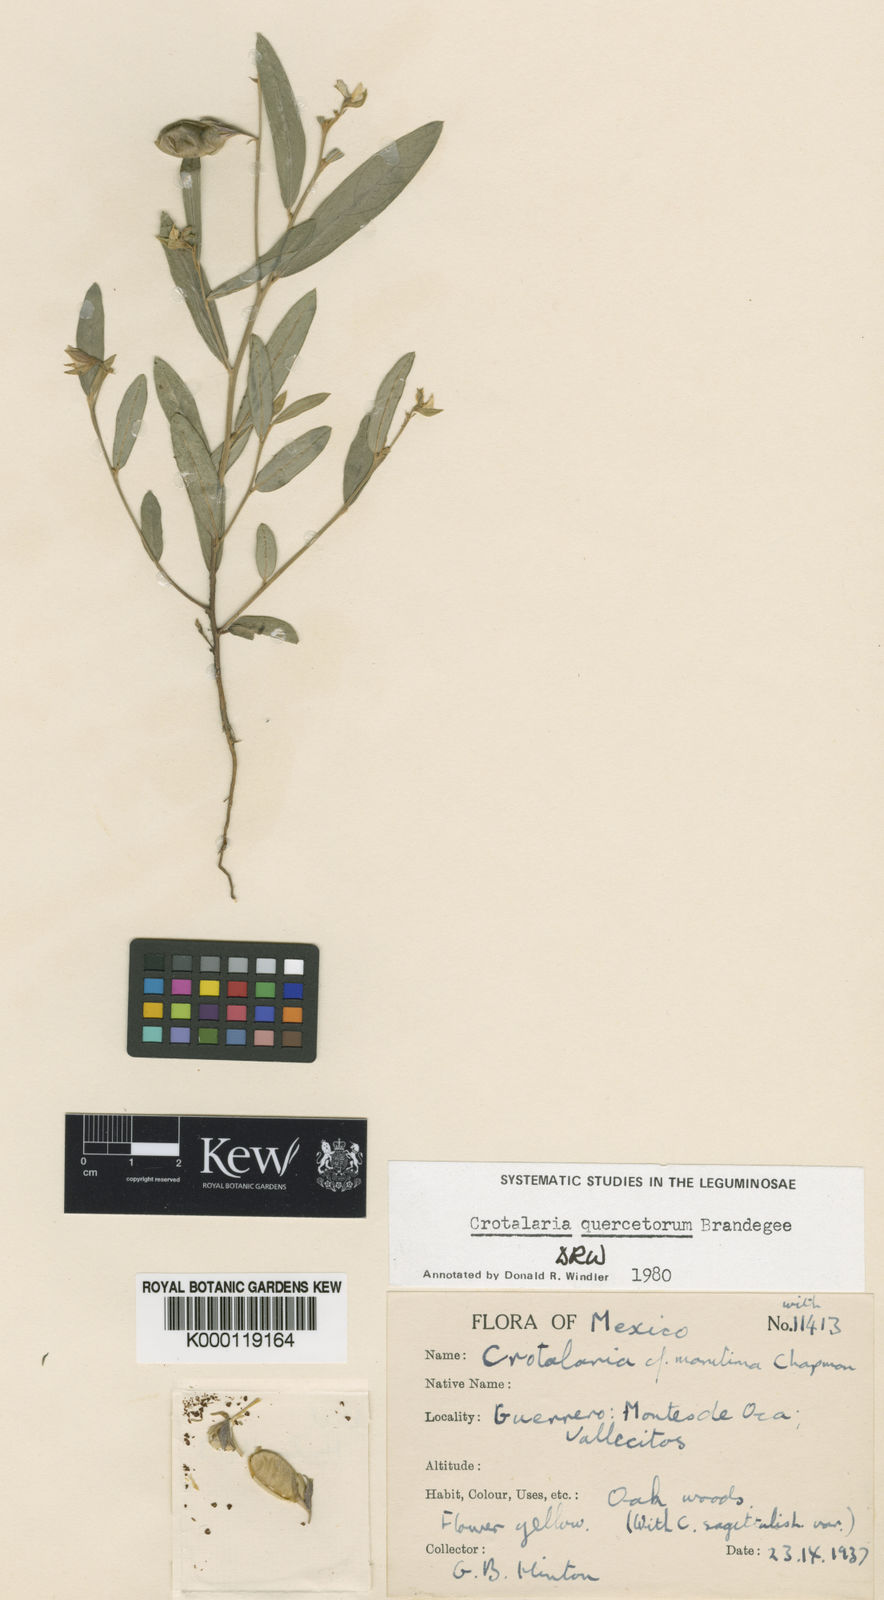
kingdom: Plantae
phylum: Tracheophyta
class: Magnoliopsida
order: Fabales
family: Fabaceae
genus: Crotalaria
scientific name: Crotalaria quercetorum
